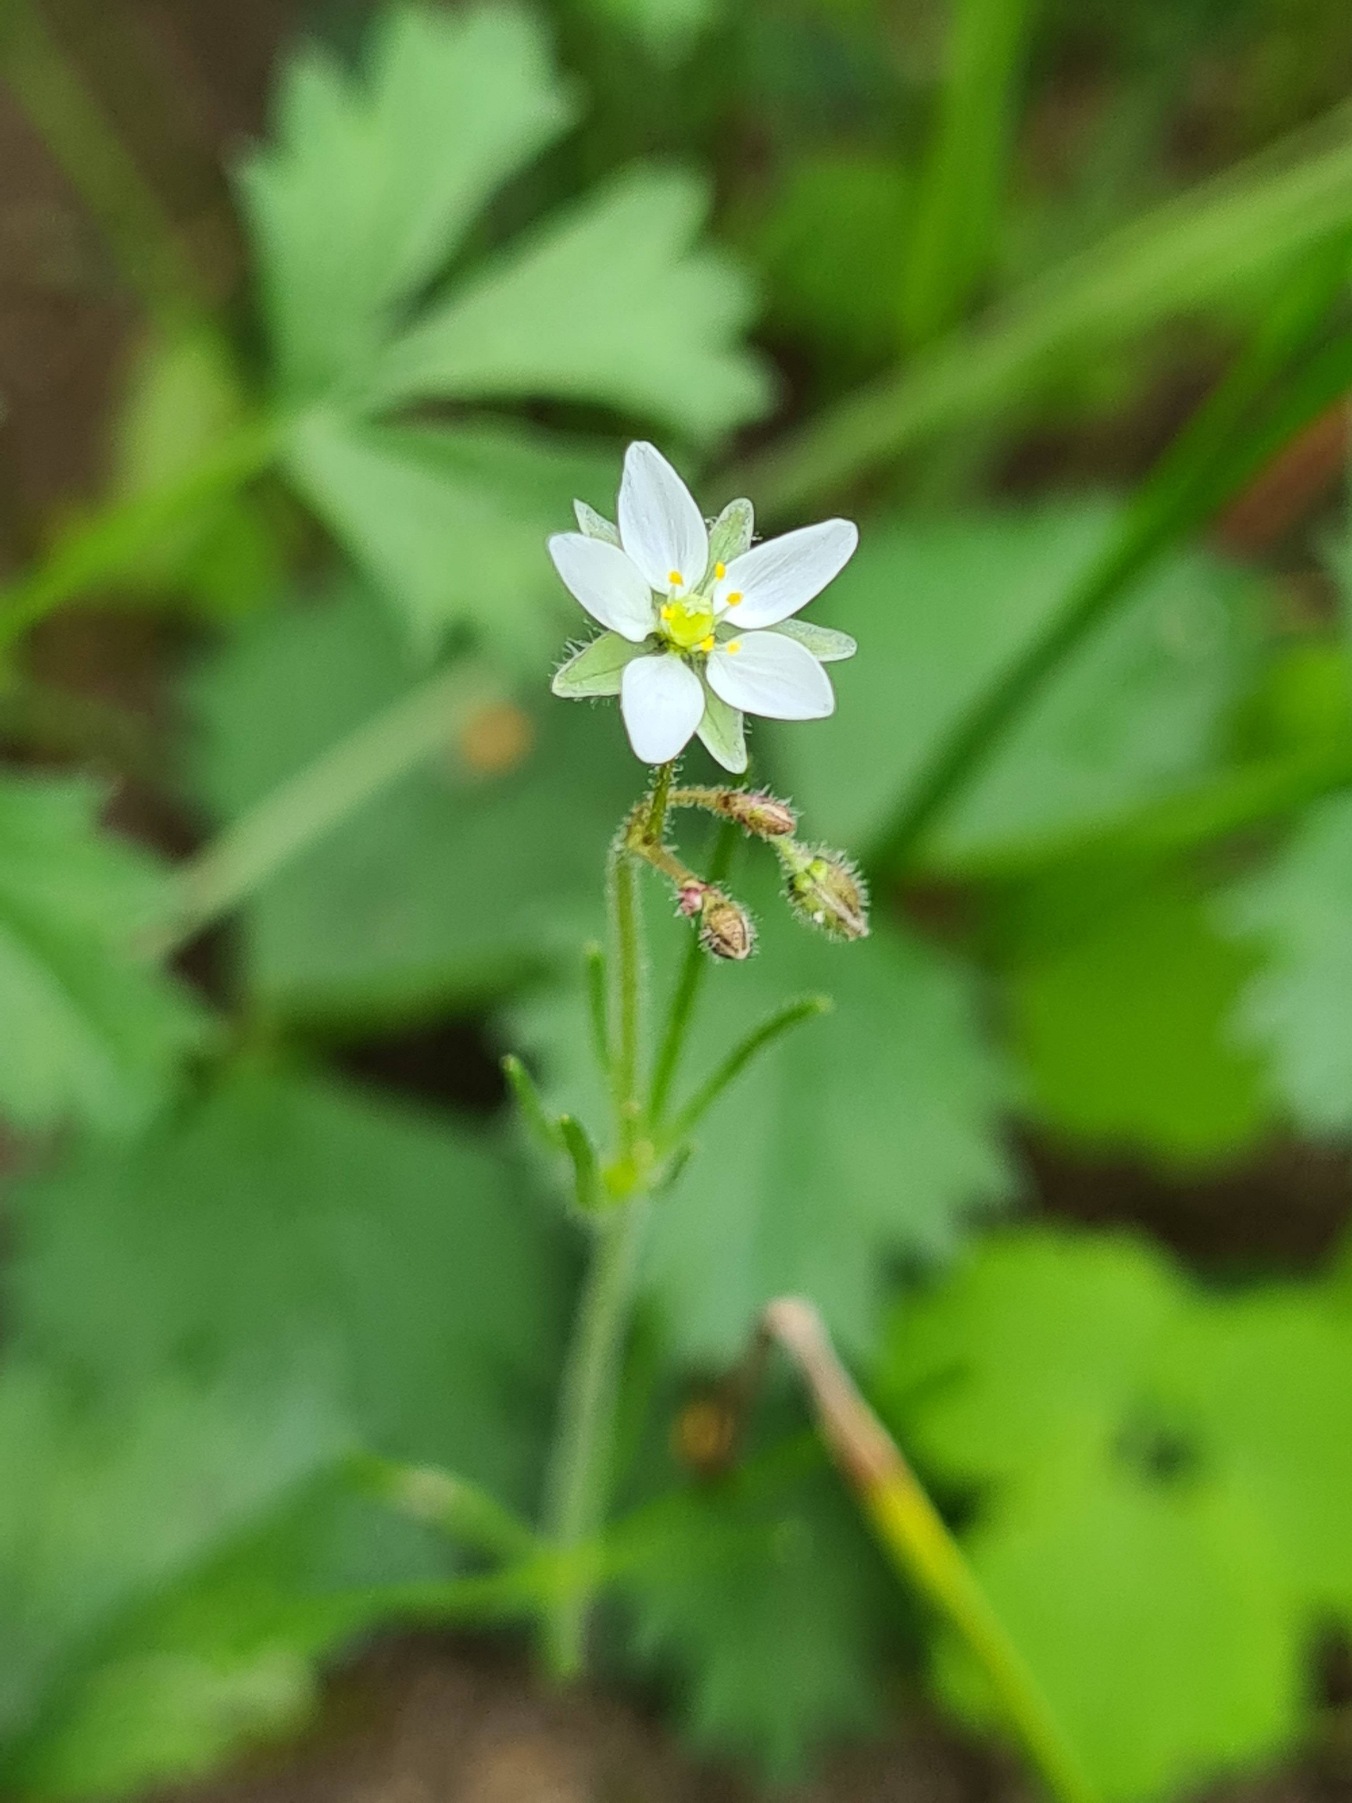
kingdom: Plantae
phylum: Tracheophyta
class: Magnoliopsida
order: Caryophyllales
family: Caryophyllaceae
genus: Spergula
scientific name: Spergula arvensis
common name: Almindelig spergel
